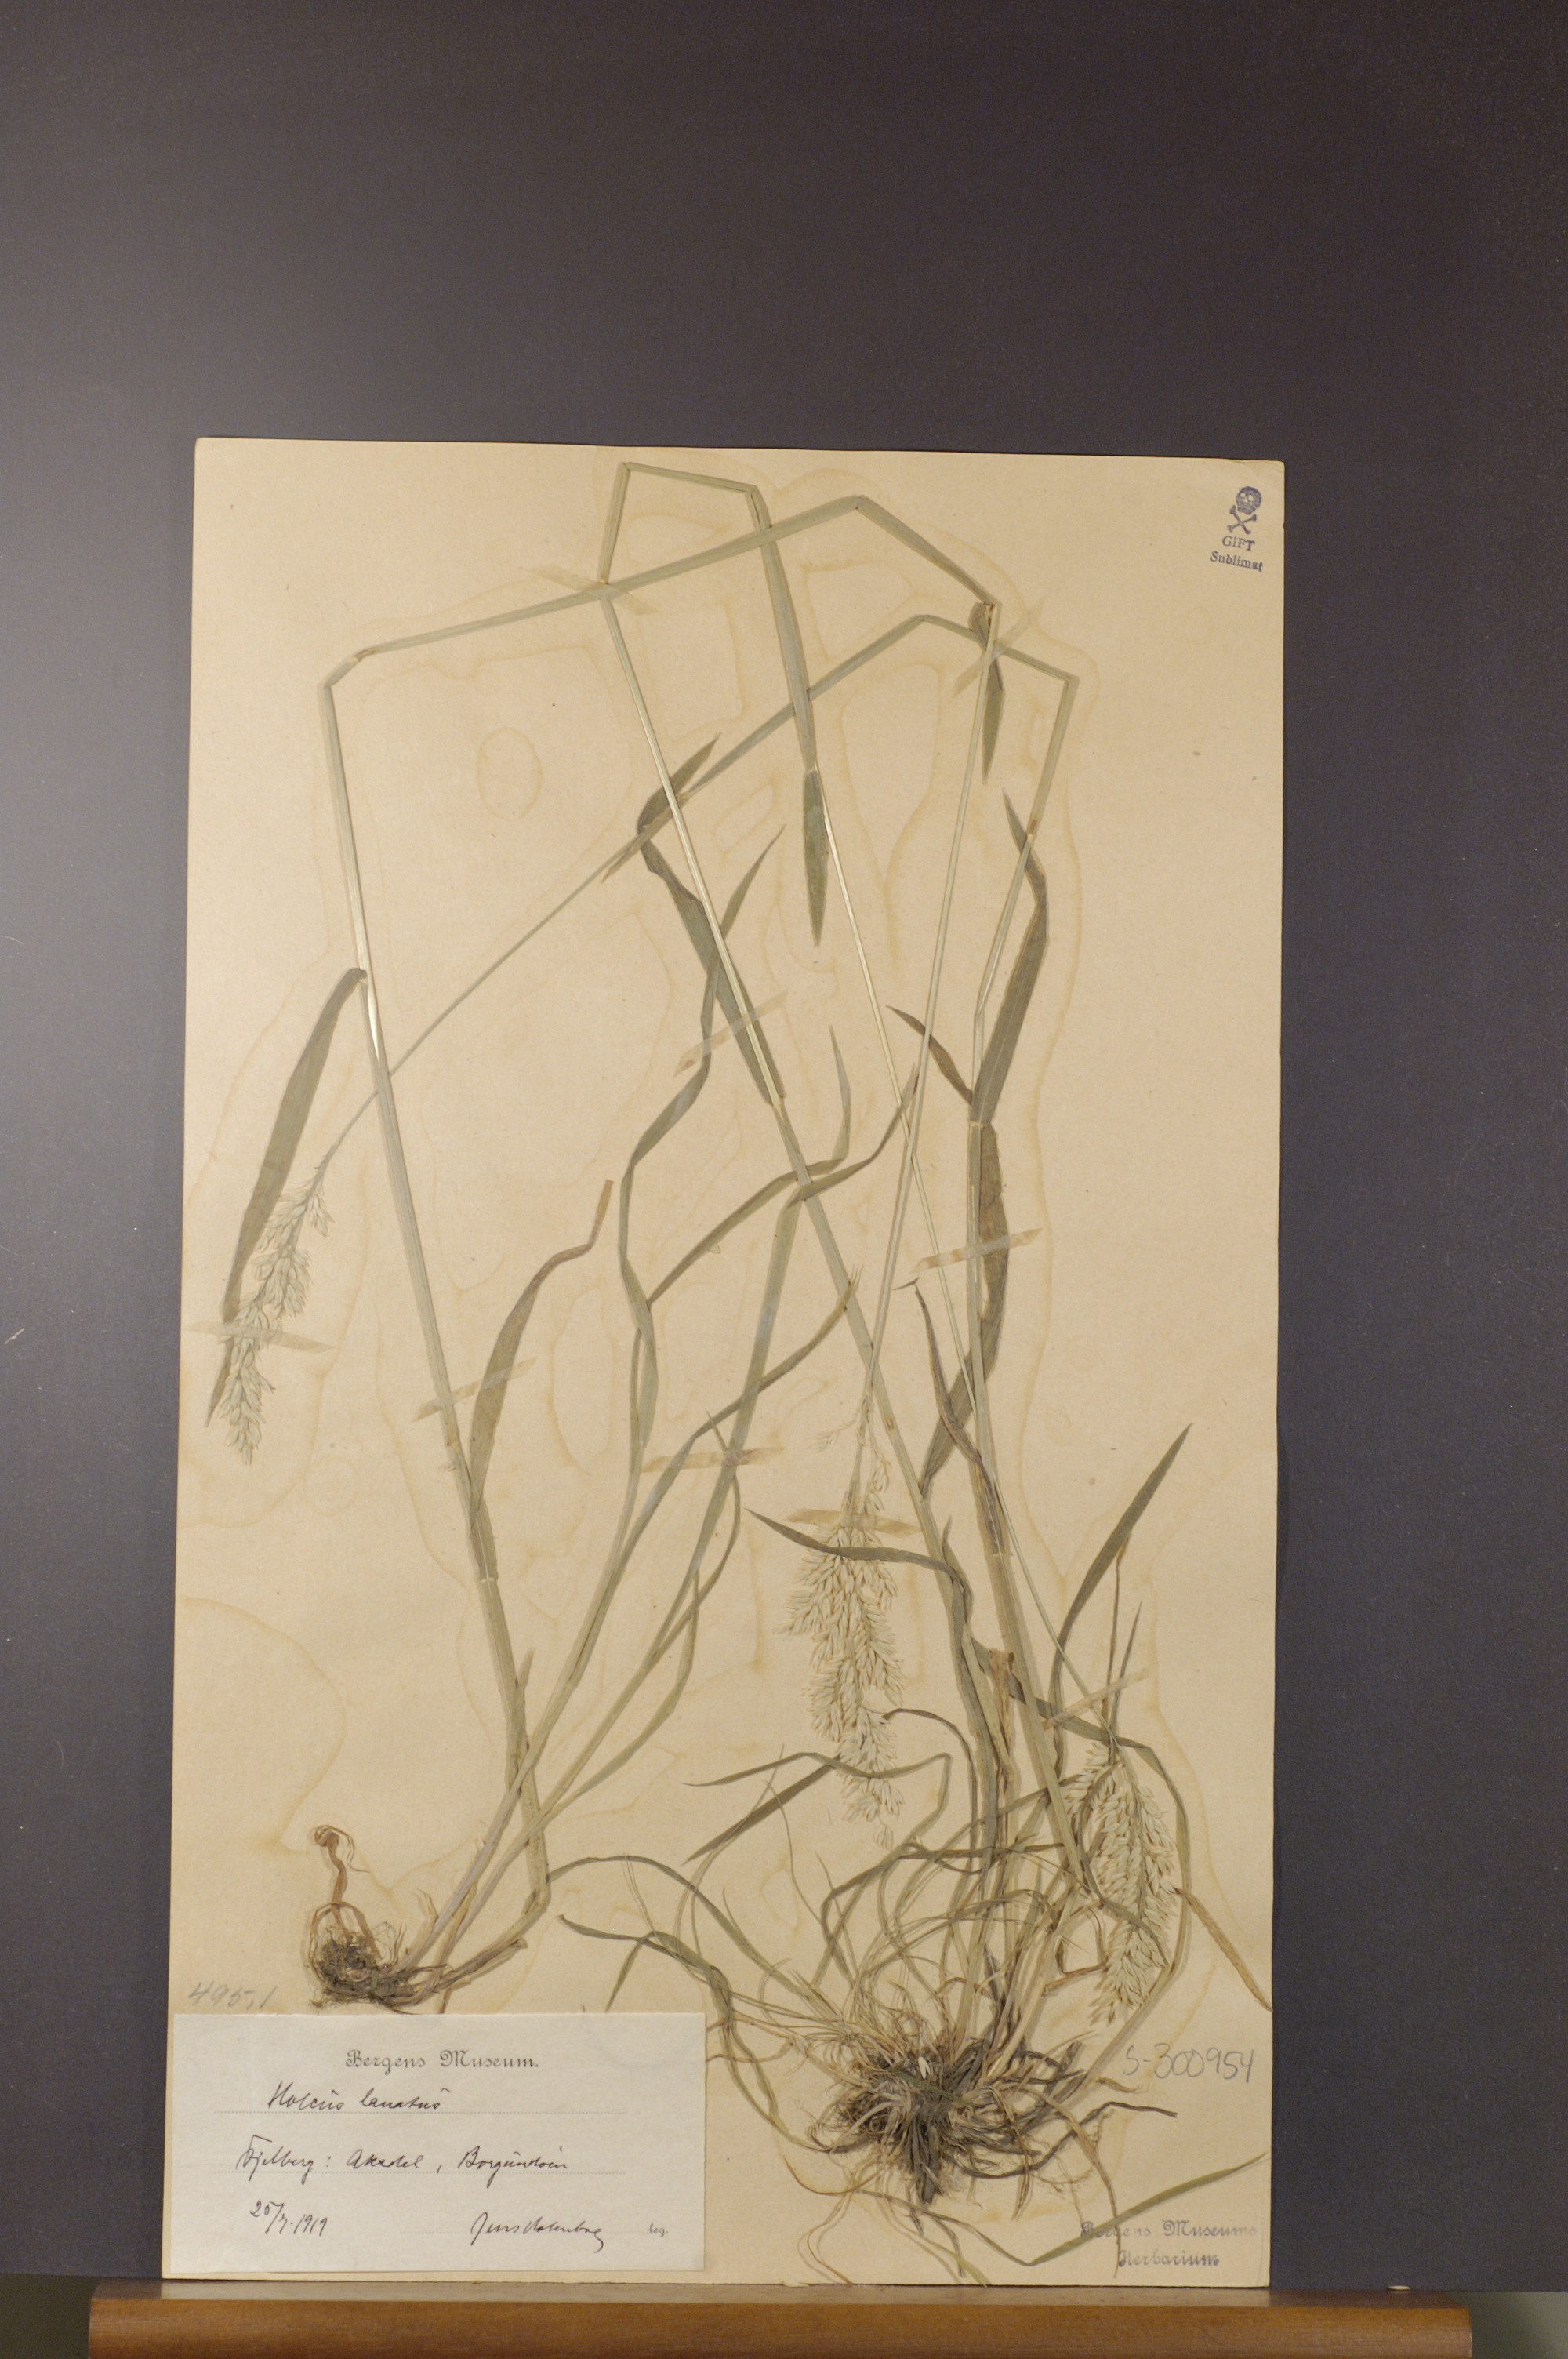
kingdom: Plantae
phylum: Tracheophyta
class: Liliopsida
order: Poales
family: Poaceae
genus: Holcus
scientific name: Holcus lanatus
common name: Yorkshire-fog
